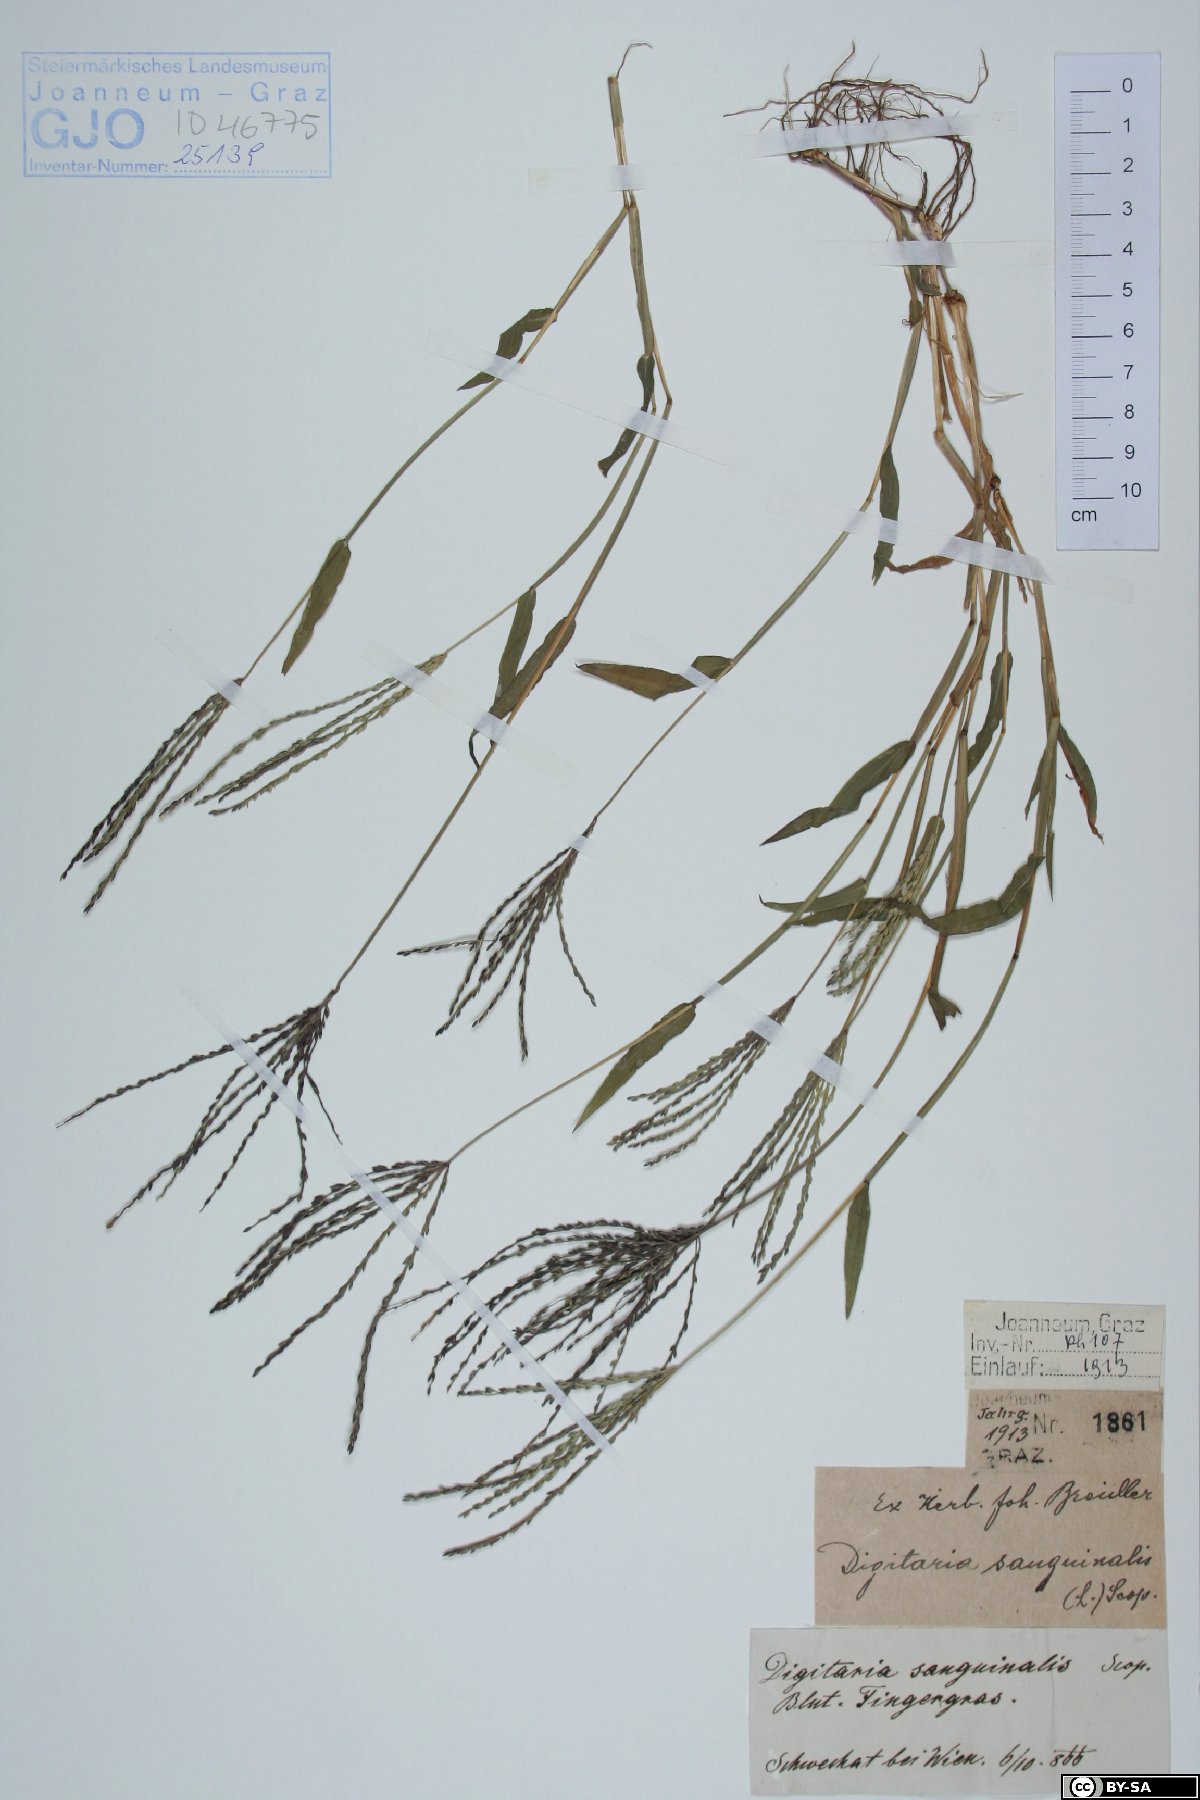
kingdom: Plantae
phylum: Tracheophyta
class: Liliopsida
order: Poales
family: Poaceae
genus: Digitaria
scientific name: Digitaria sanguinalis
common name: Hairy crabgrass
